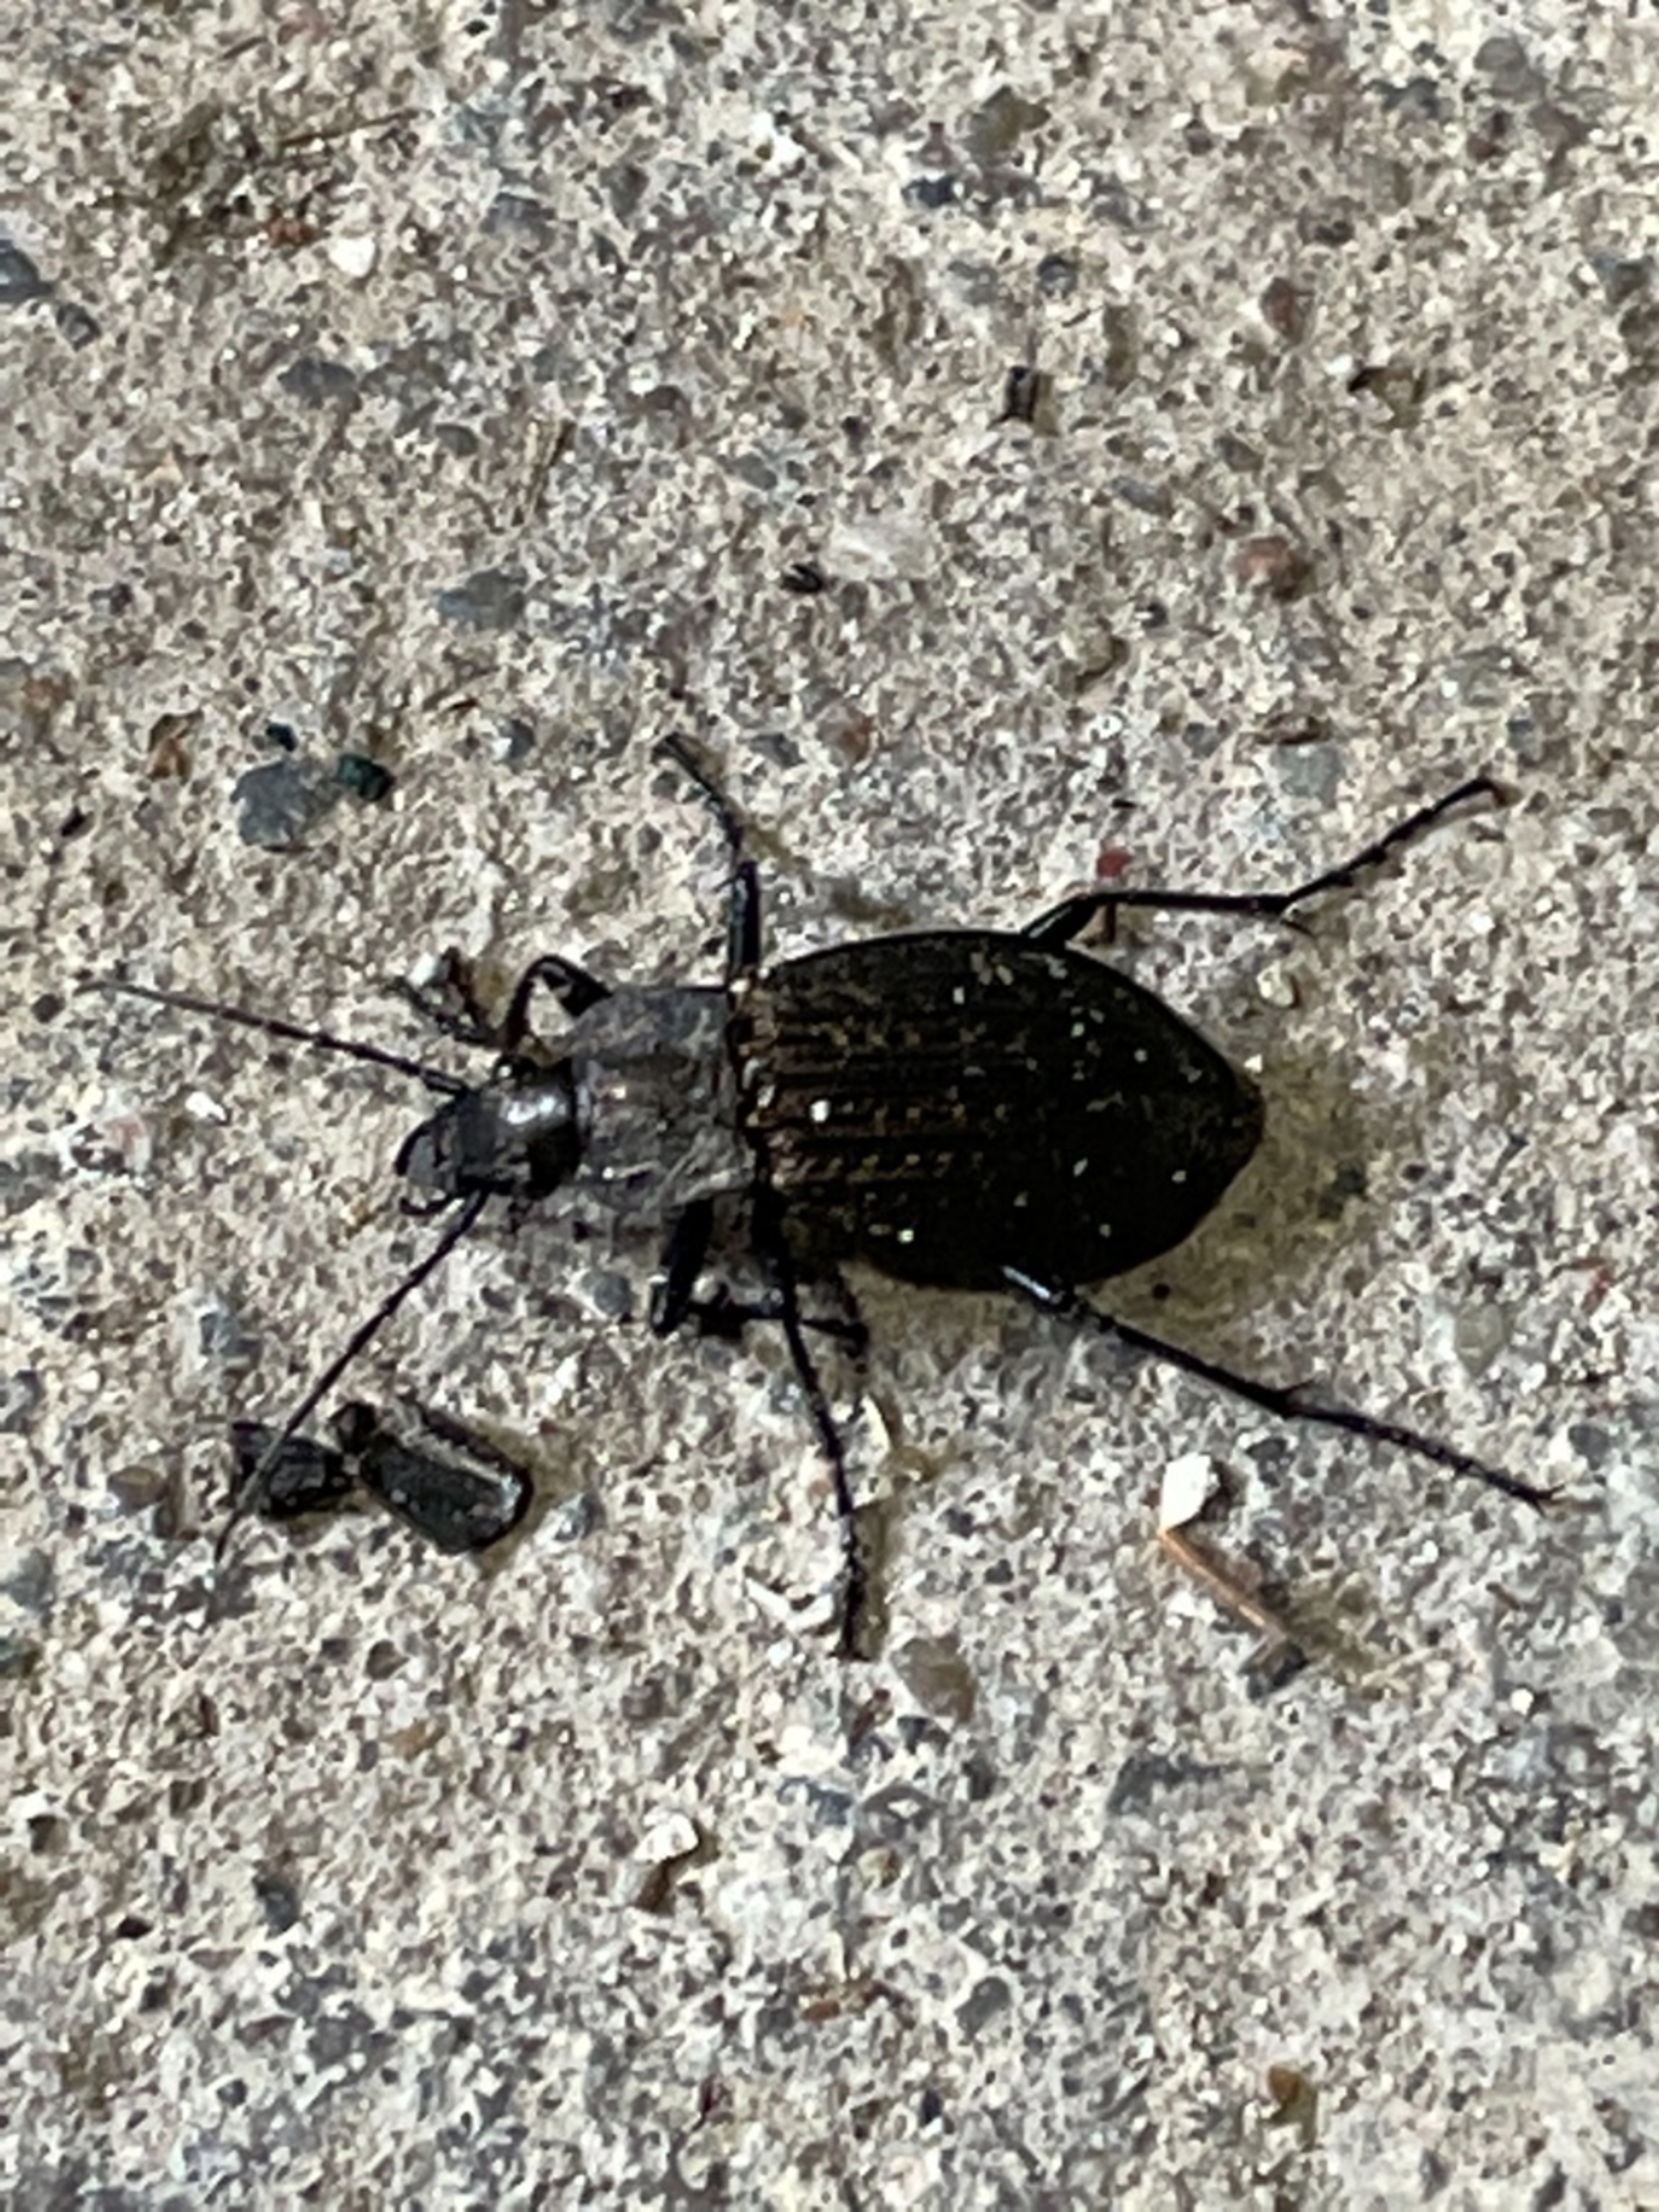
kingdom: Animalia
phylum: Arthropoda
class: Insecta
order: Coleoptera
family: Carabidae
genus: Carabus
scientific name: Carabus granulatus
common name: Kornet løber
